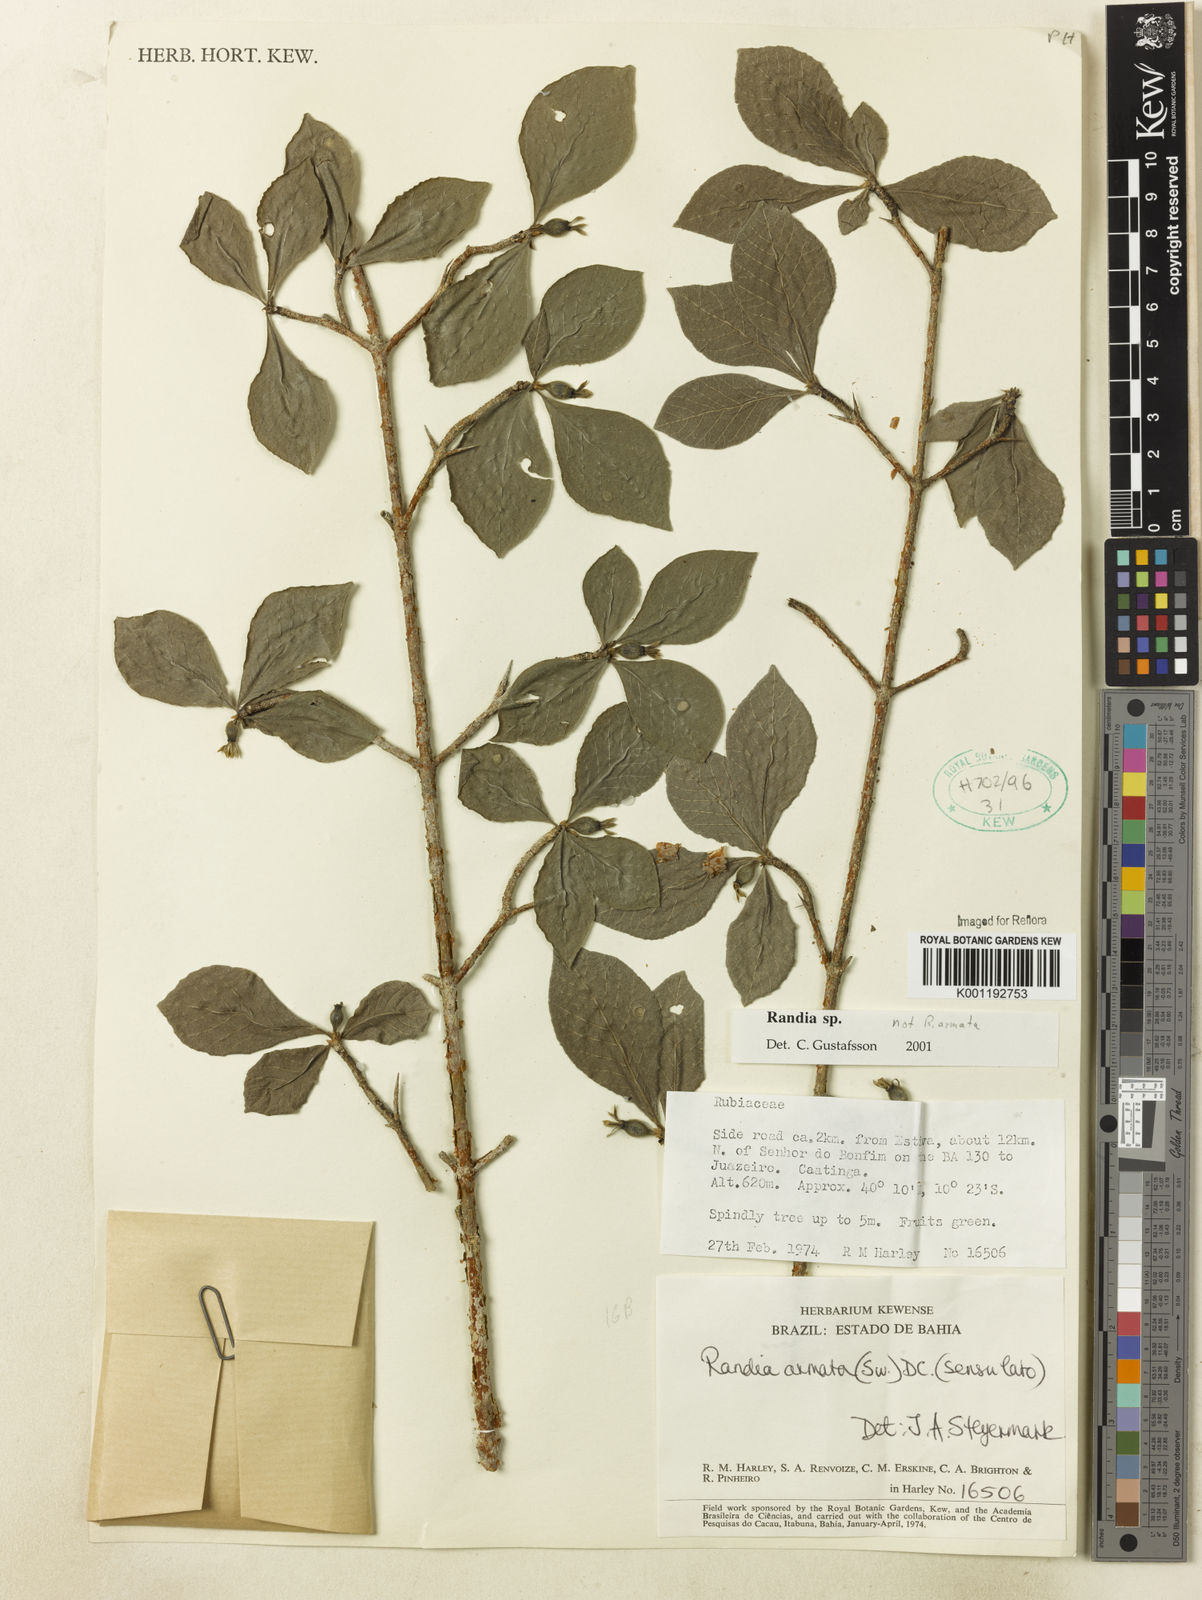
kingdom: Plantae
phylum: Tracheophyta
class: Magnoliopsida
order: Gentianales
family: Rubiaceae
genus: Randia
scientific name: Randia
